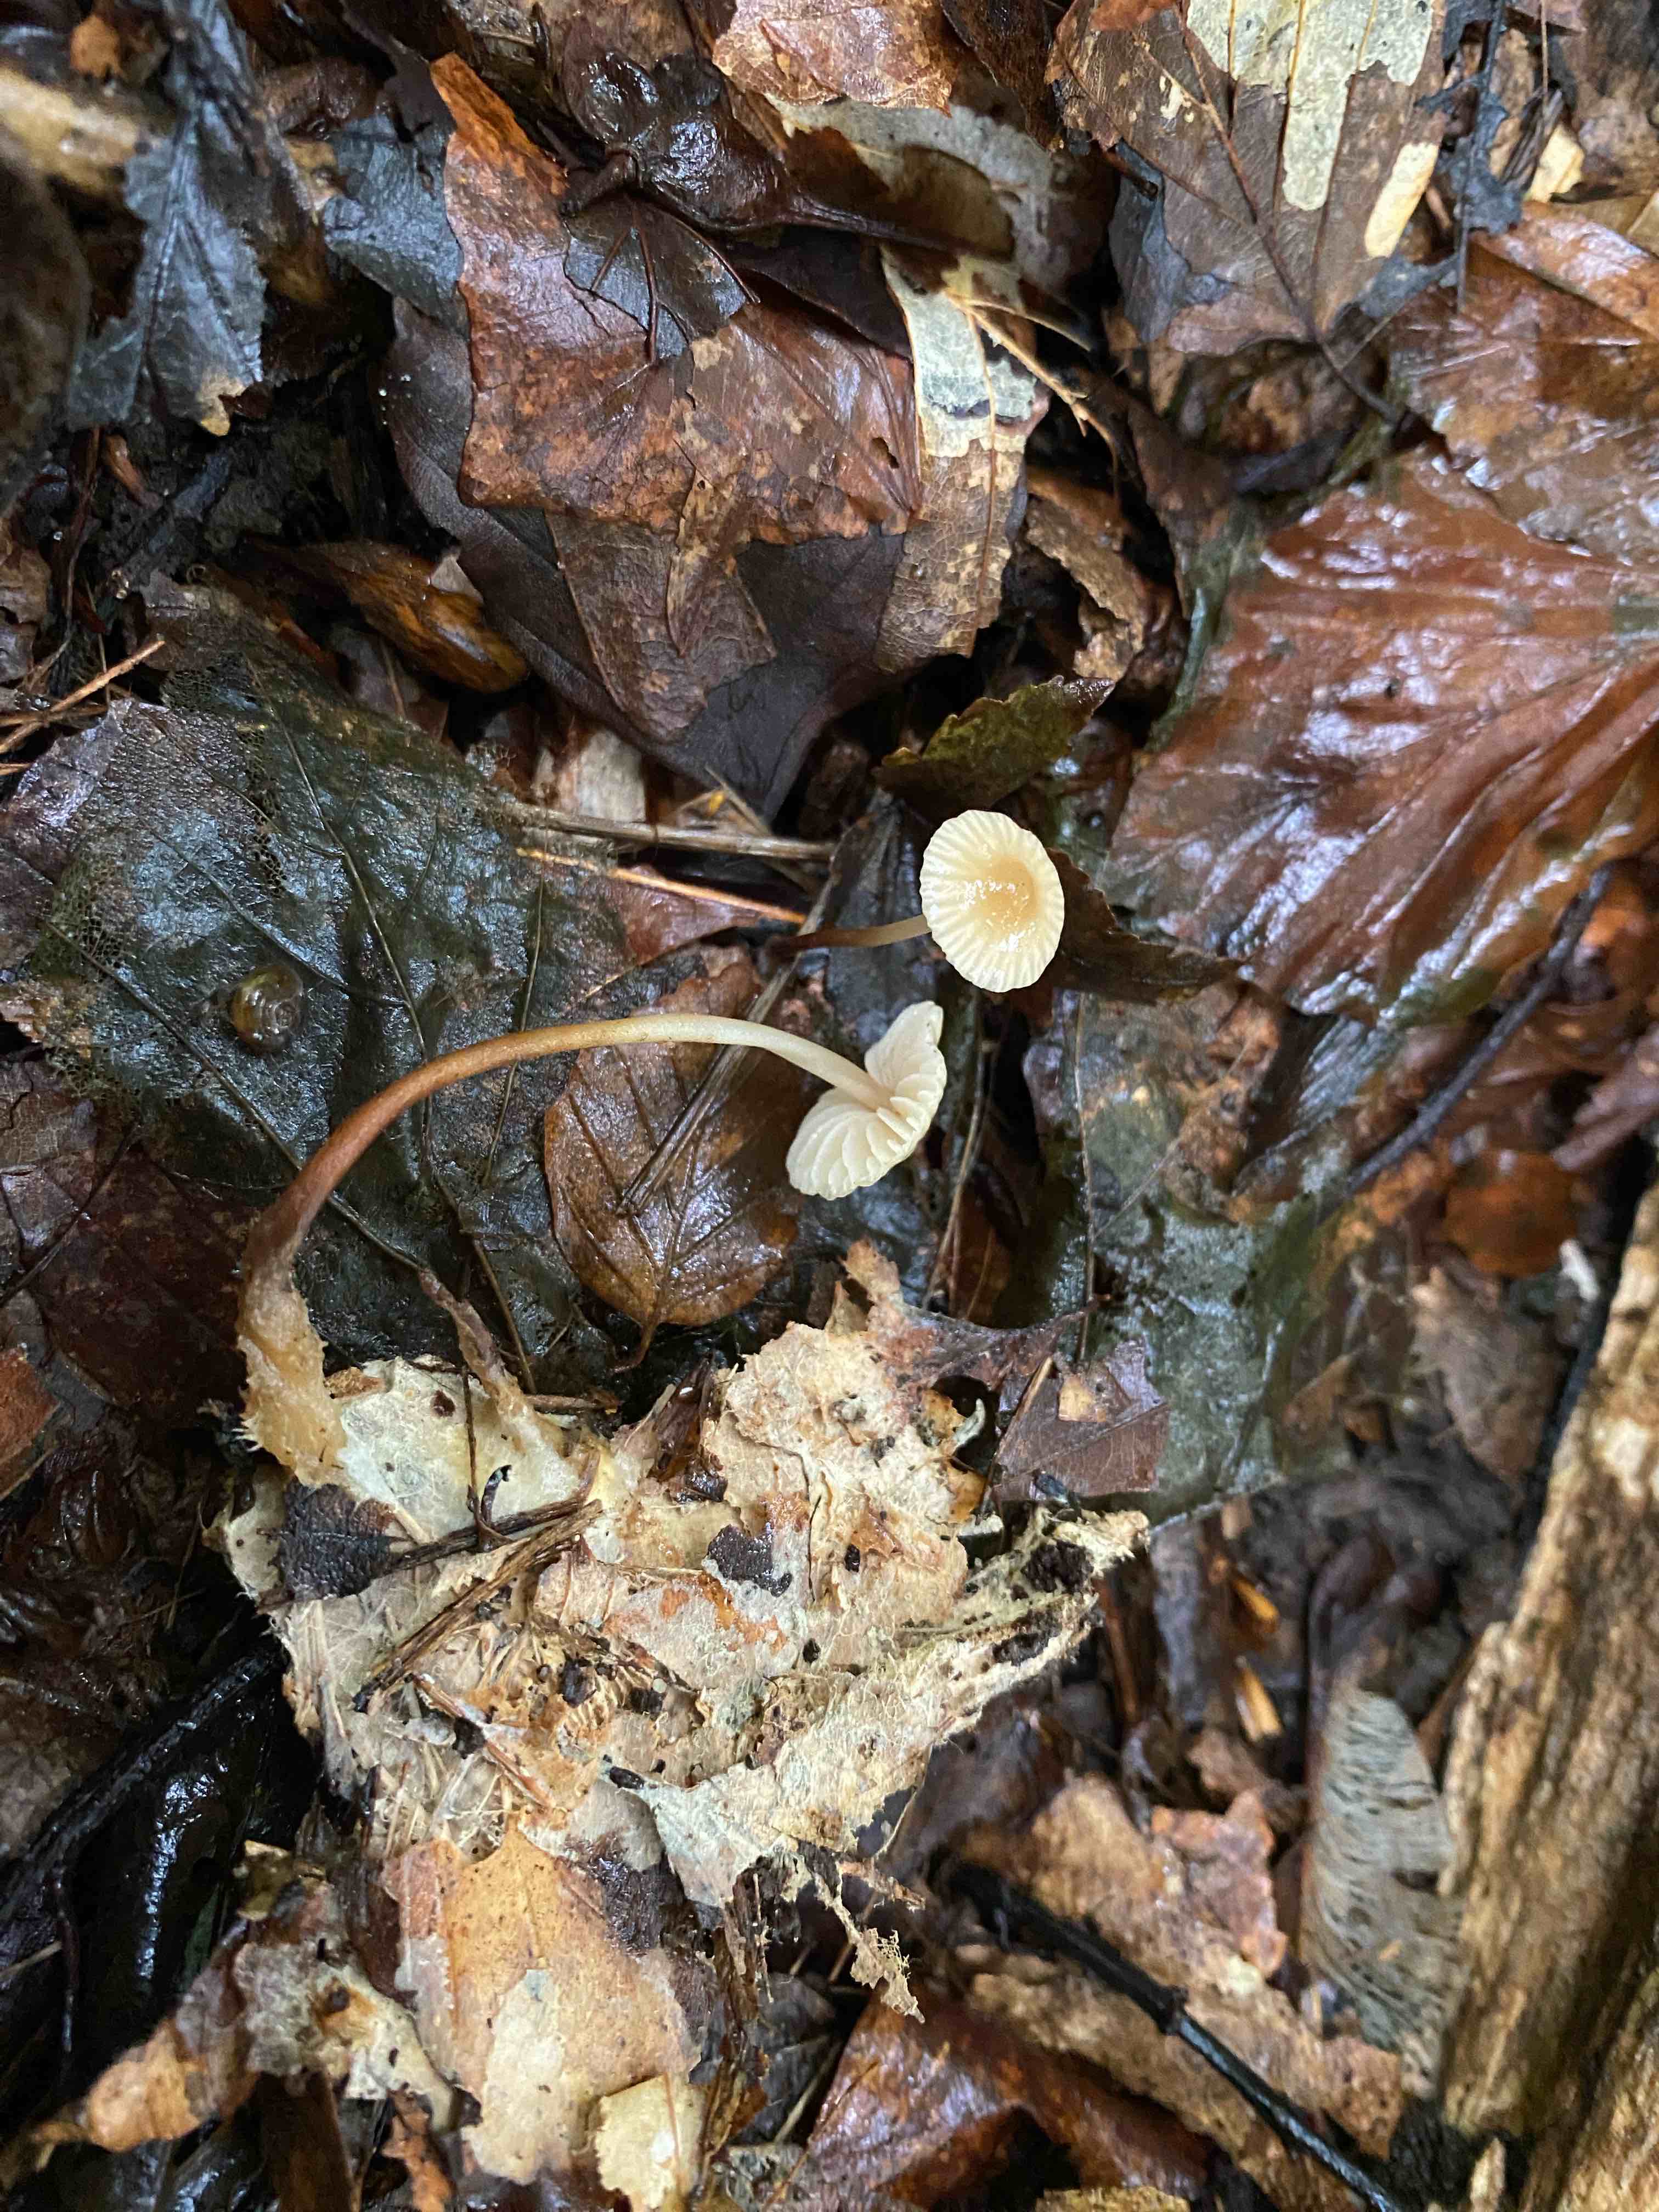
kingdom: Fungi
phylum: Basidiomycota
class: Agaricomycetes
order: Agaricales
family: Marasmiaceae
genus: Marasmius
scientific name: Marasmius torquescens
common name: filtfodet bruskhat
